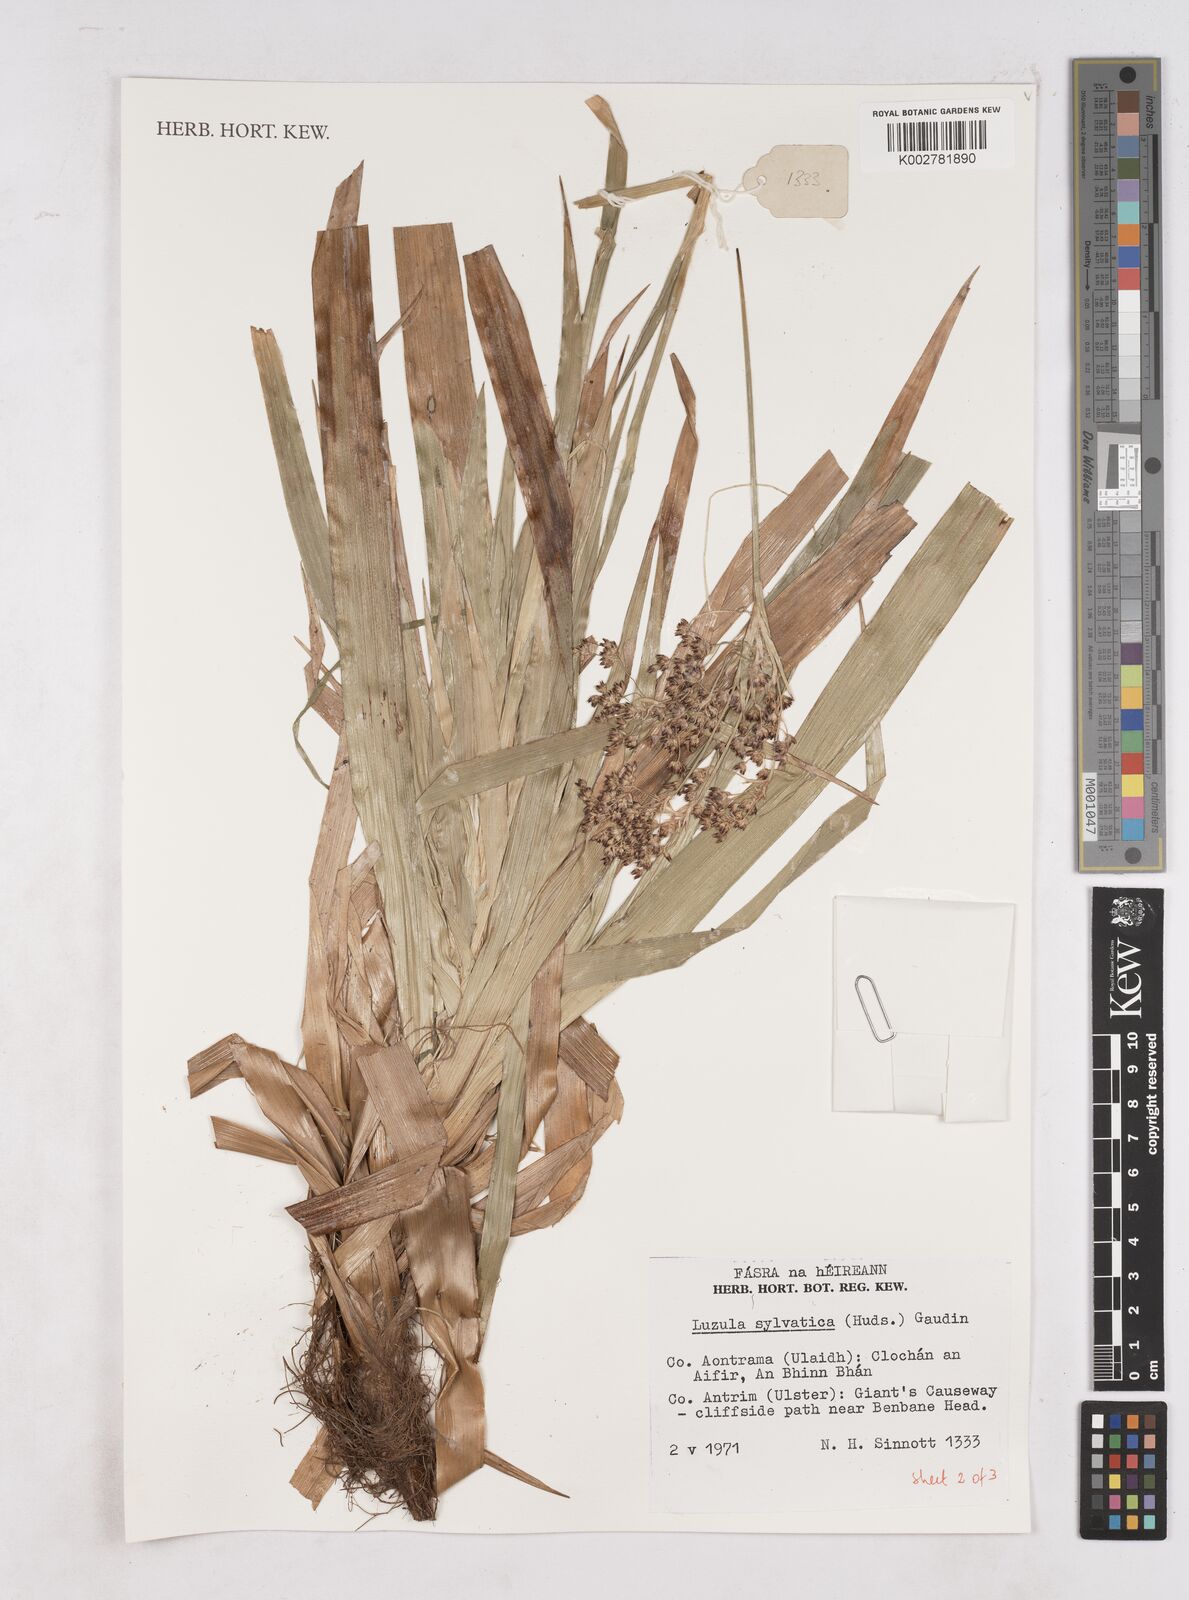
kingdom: Plantae
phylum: Tracheophyta
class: Liliopsida
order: Poales
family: Juncaceae
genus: Luzula
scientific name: Luzula sylvatica
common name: Great wood-rush
